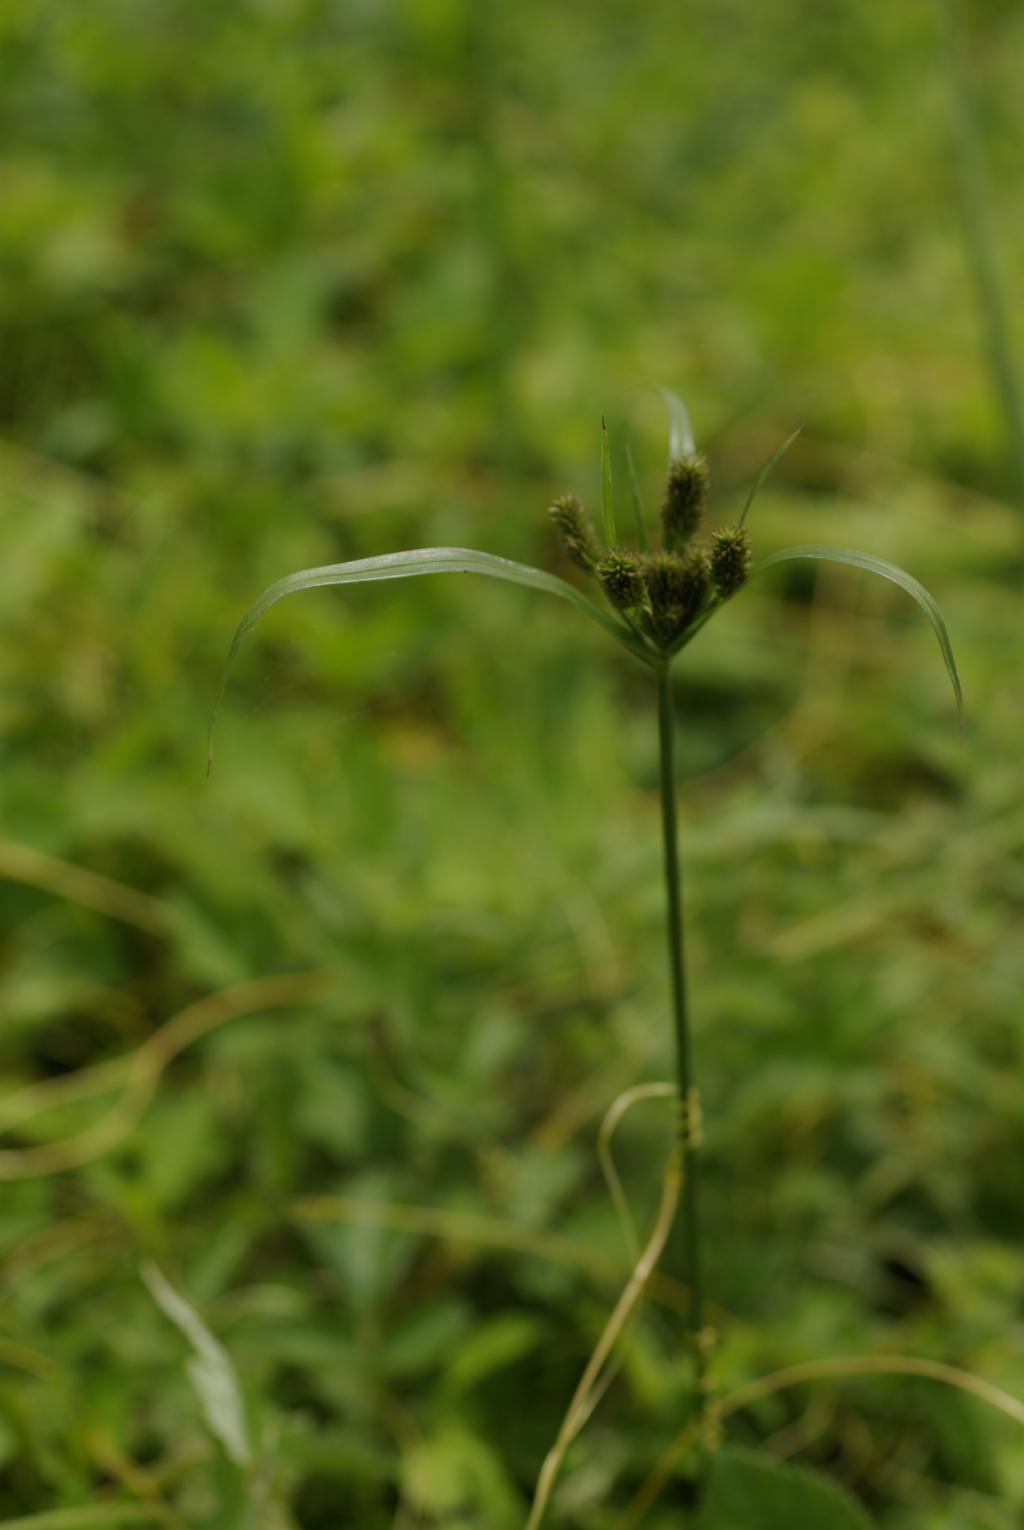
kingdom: Plantae
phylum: Tracheophyta
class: Liliopsida
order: Poales
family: Cyperaceae
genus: Cyperus
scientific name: Cyperus cyperoides
